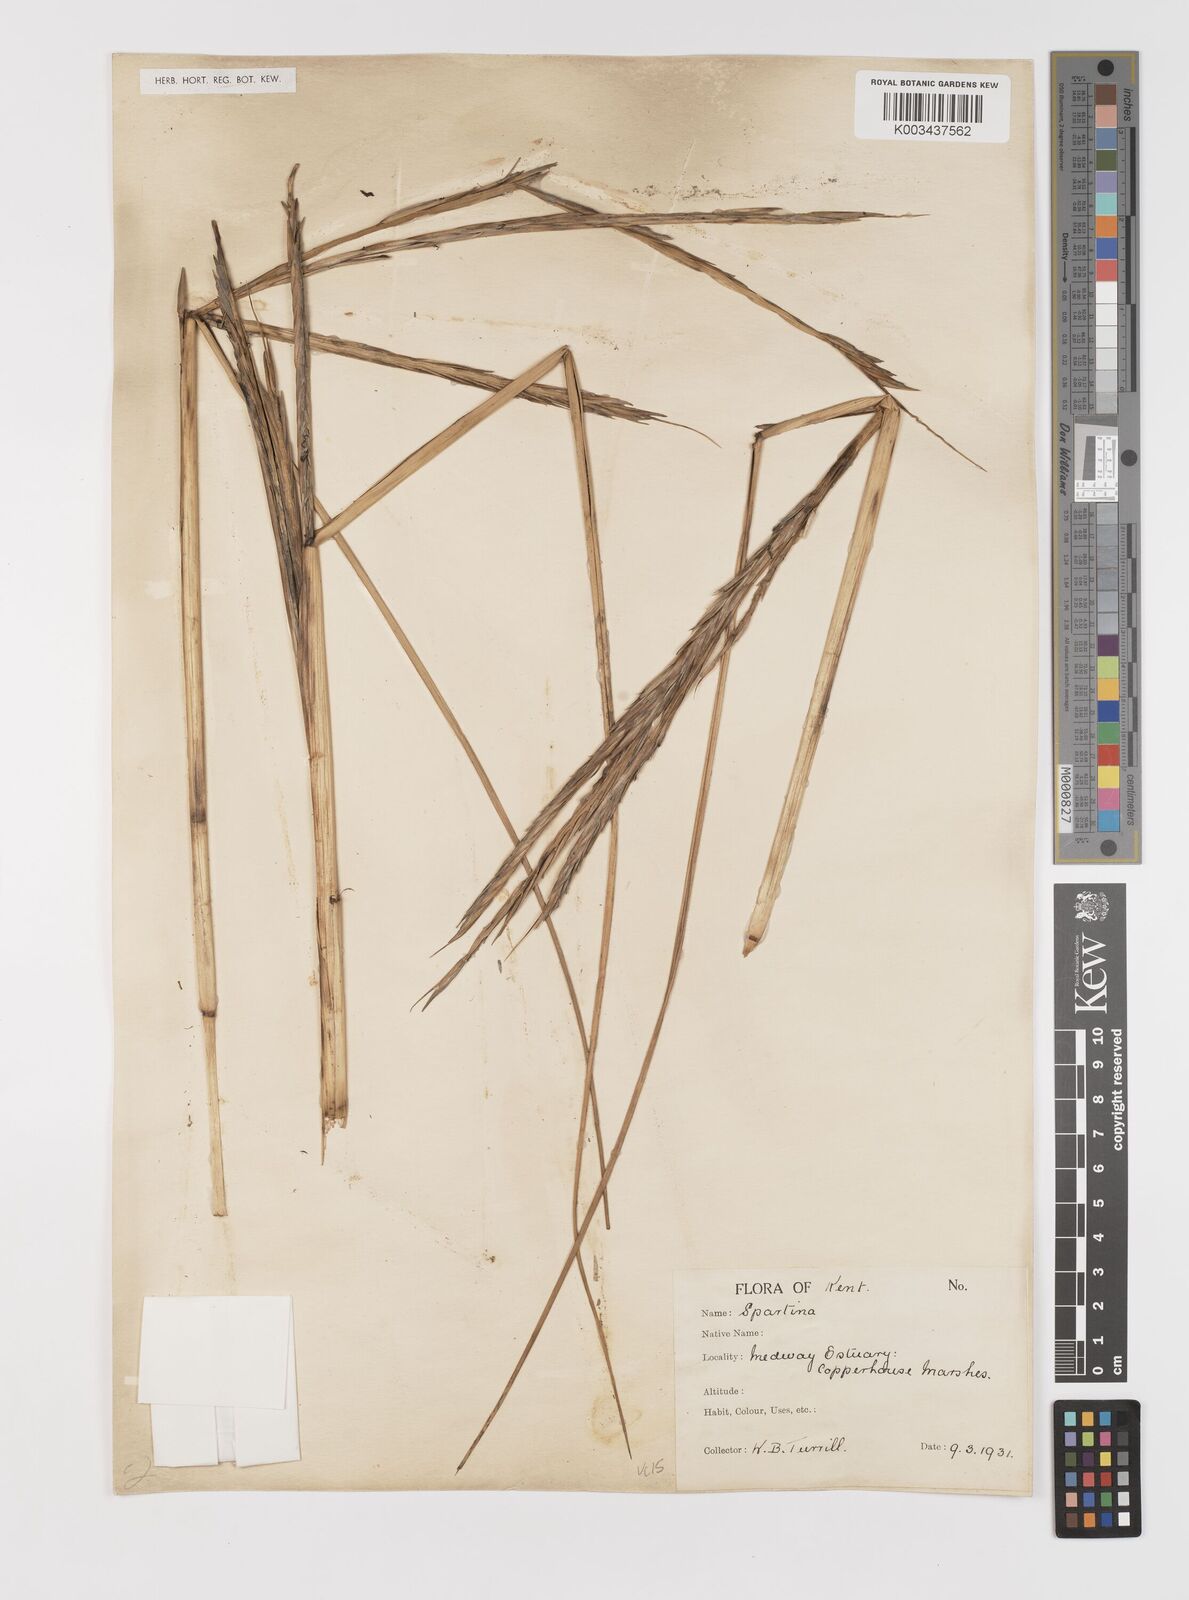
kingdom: Plantae
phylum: Tracheophyta
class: Liliopsida
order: Poales
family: Poaceae
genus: Sporobolus
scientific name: Sporobolus anglicus
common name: English cordgrass
